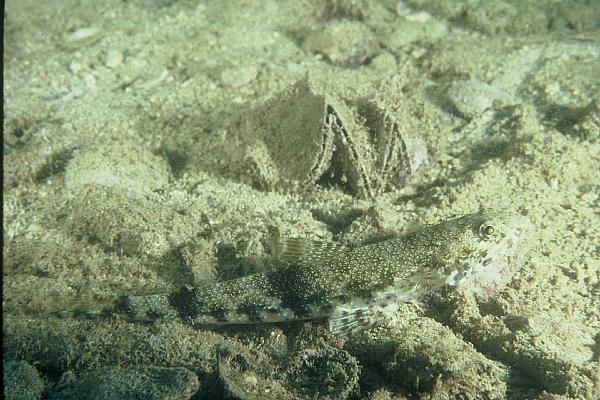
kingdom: Animalia
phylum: Chordata
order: Aulopiformes
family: Synodontidae
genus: Saurida
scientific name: Saurida
